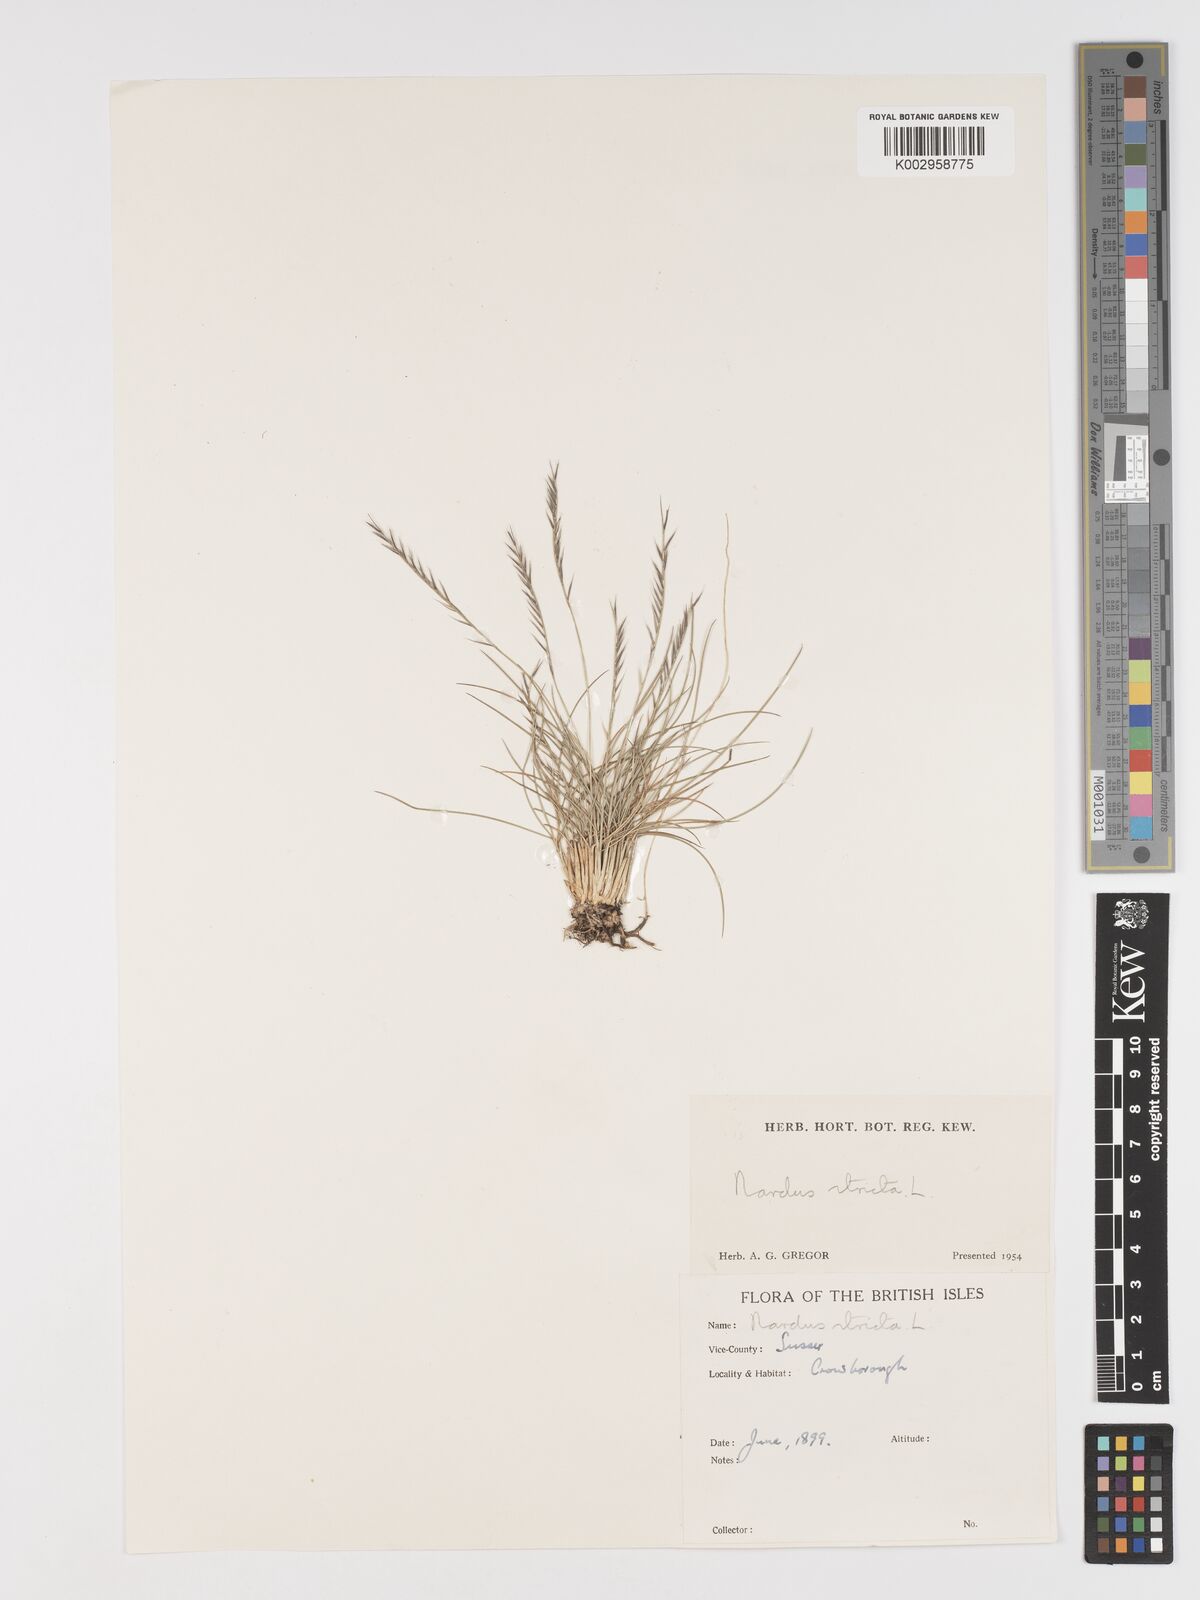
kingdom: Plantae
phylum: Tracheophyta
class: Liliopsida
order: Poales
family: Poaceae
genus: Nardus
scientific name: Nardus stricta
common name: Mat-grass
